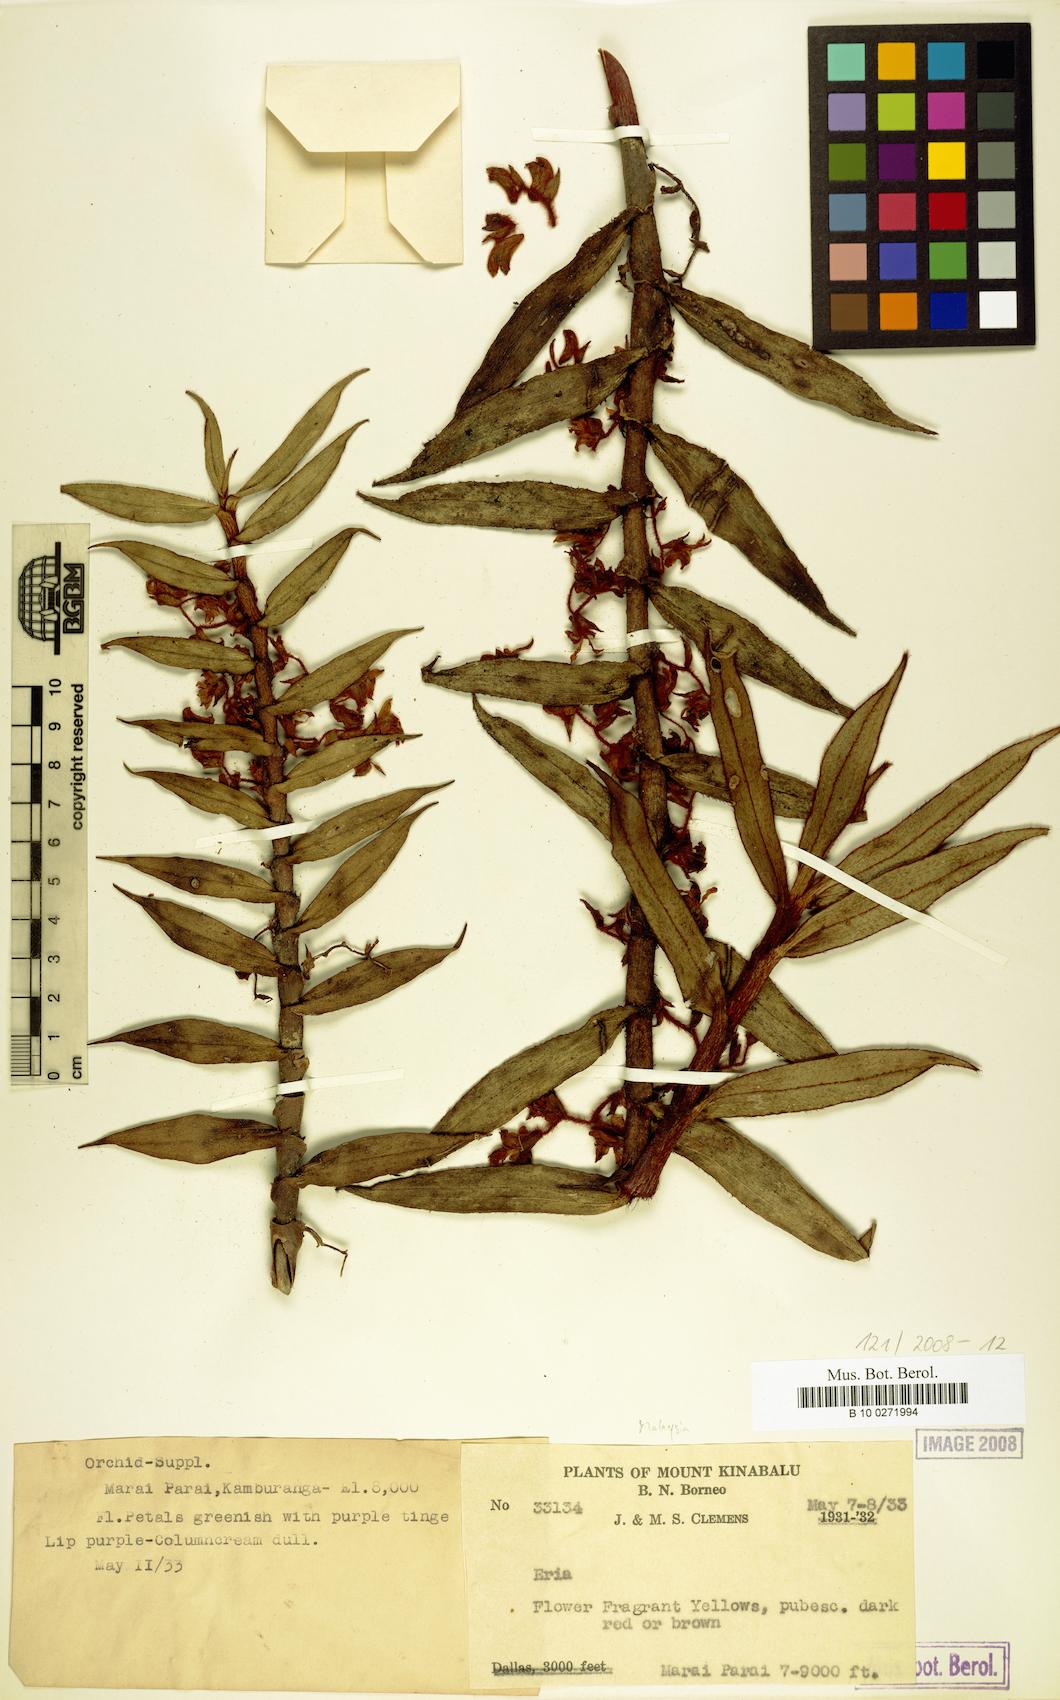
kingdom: Plantae
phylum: Tracheophyta
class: Liliopsida
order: Asparagales
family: Orchidaceae
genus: Eria
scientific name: Eria
